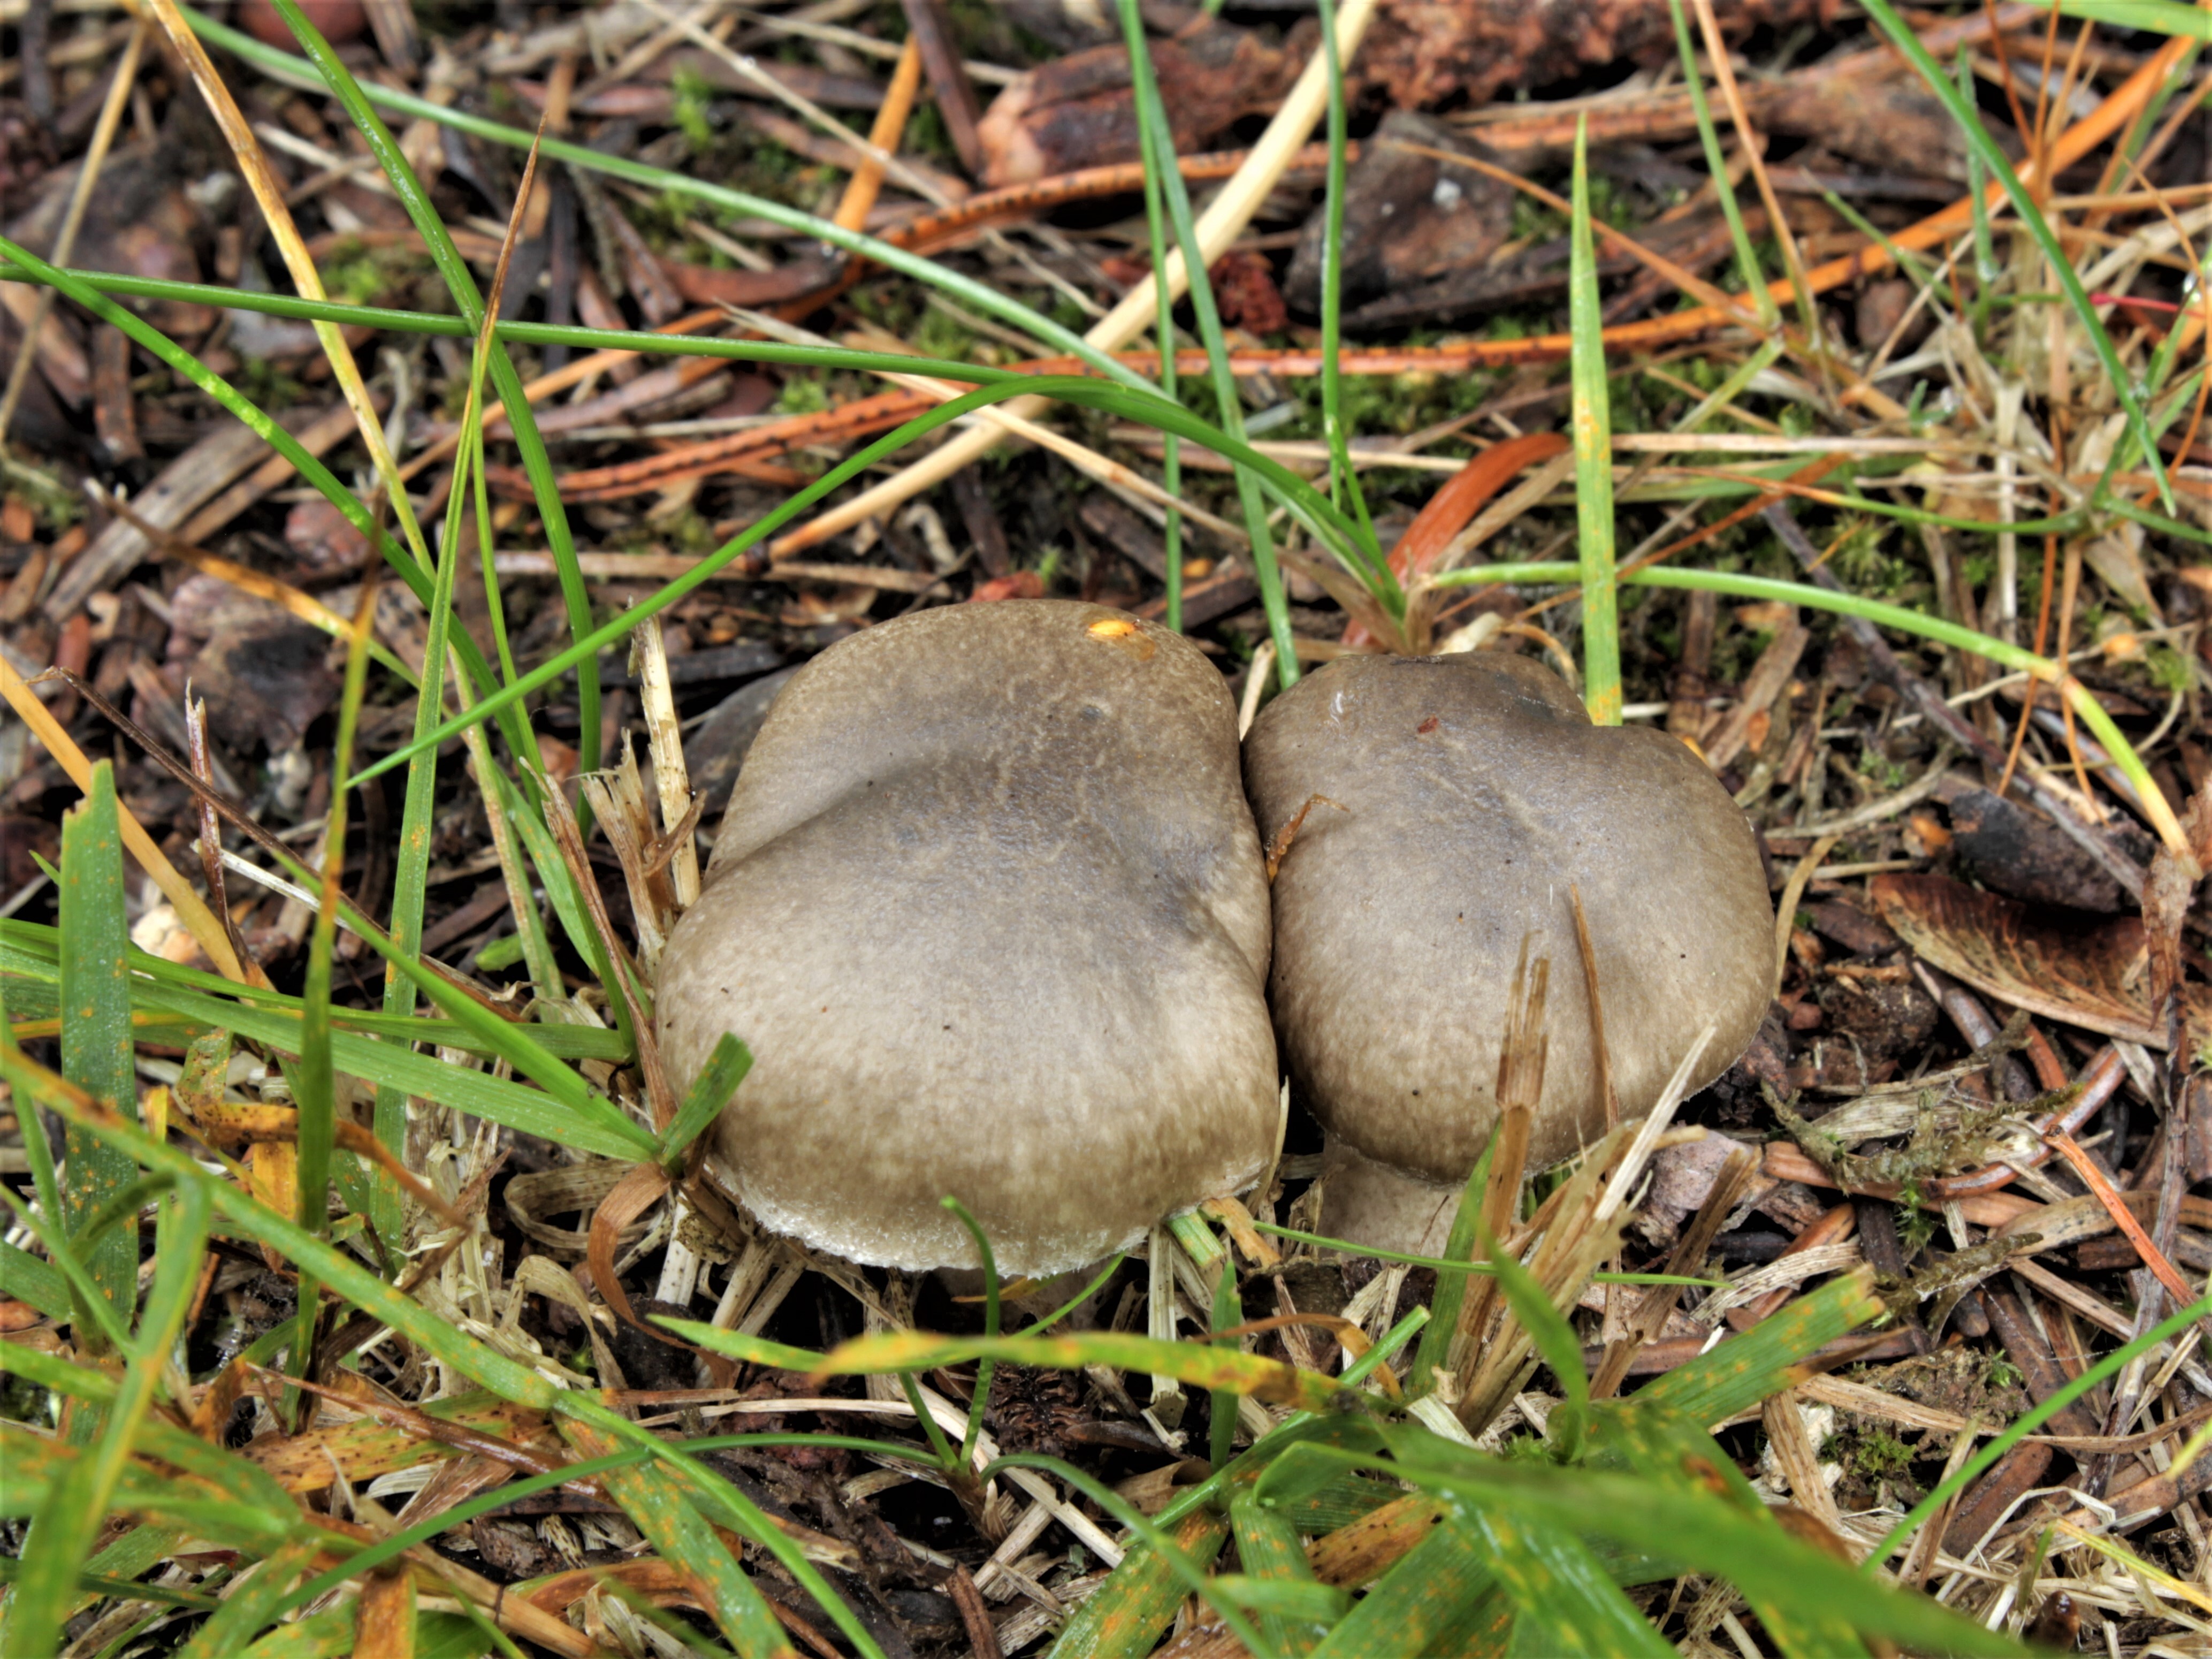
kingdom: Fungi
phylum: Basidiomycota
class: Agaricomycetes
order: Agaricales
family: Hygrophoraceae
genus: Hygrophorus
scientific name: Hygrophorus pustulatus
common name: Blistered woodwax
